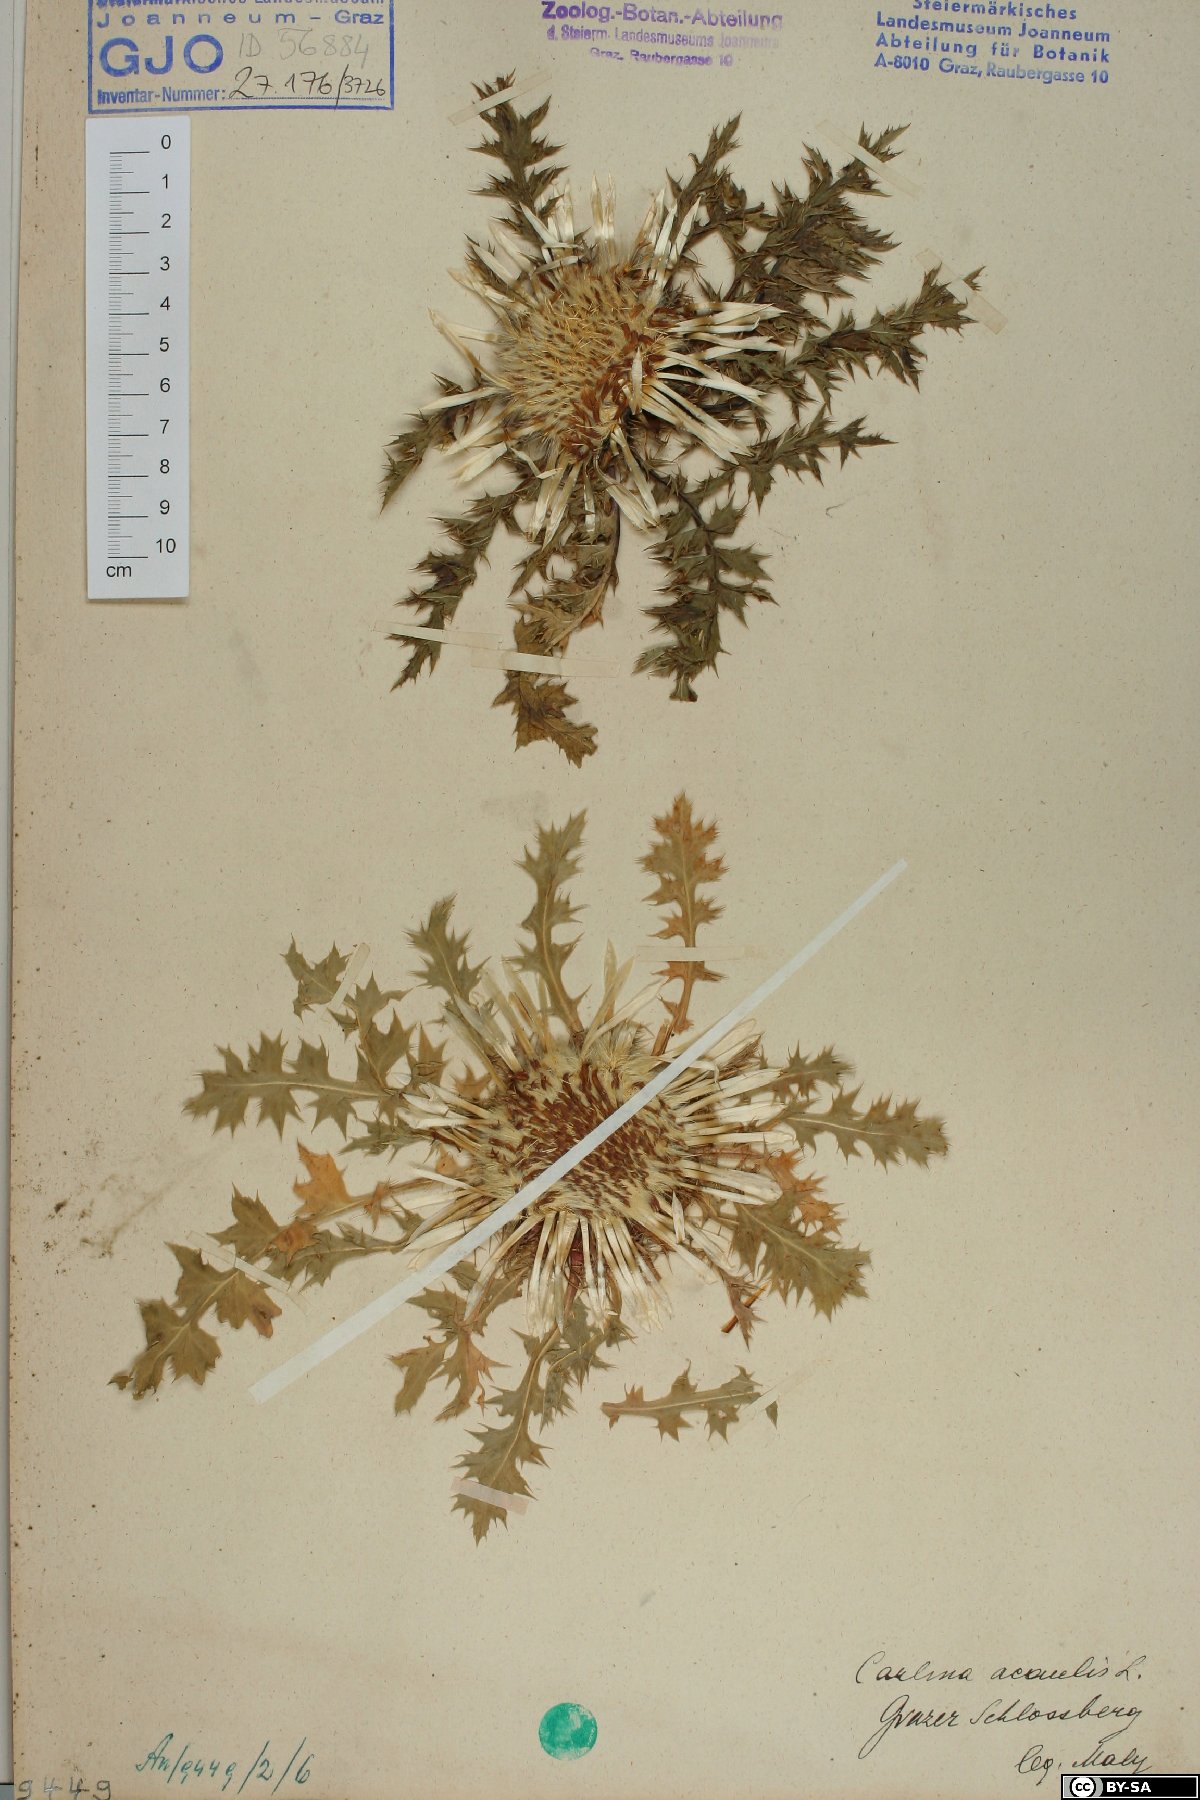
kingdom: Plantae
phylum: Tracheophyta
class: Magnoliopsida
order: Asterales
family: Asteraceae
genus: Carlina
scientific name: Carlina acaulis
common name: Stemless carline thistle
